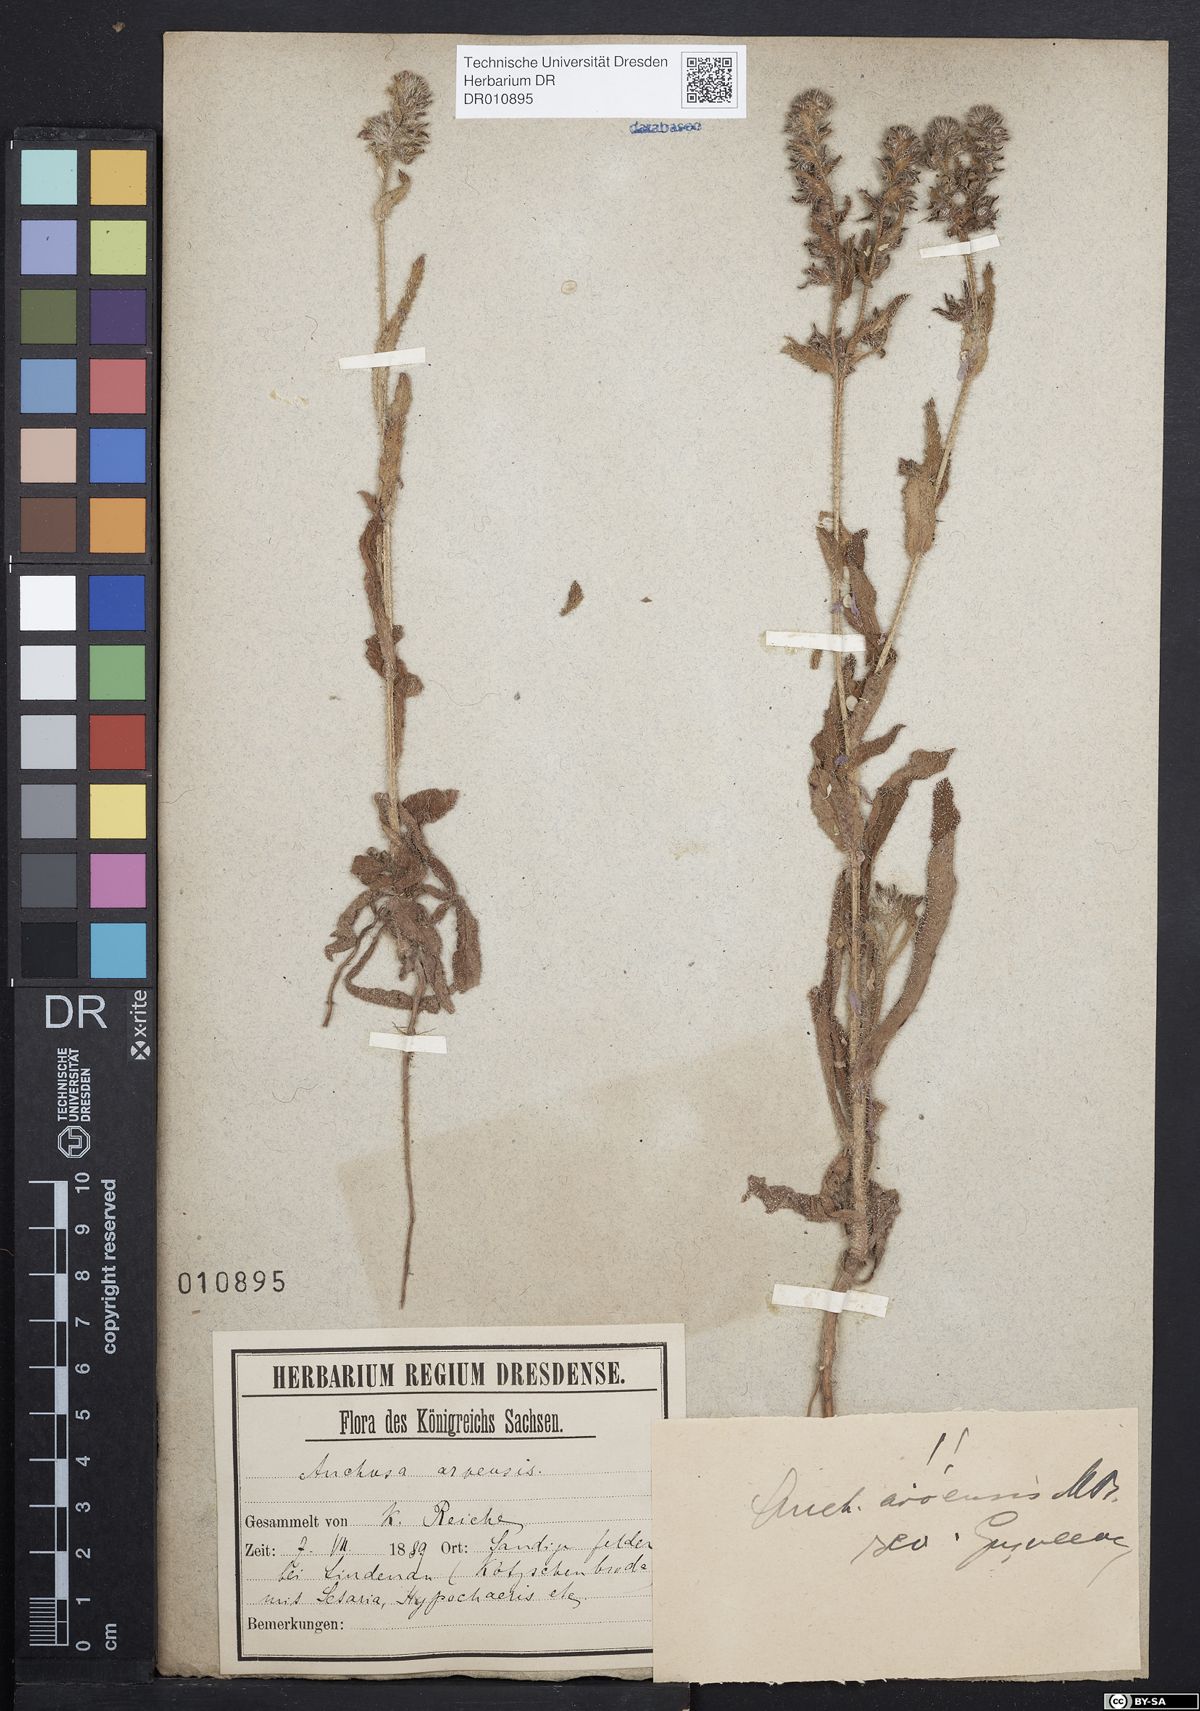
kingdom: Plantae
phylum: Tracheophyta
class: Magnoliopsida
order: Boraginales
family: Boraginaceae
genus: Lycopsis
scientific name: Lycopsis arvensis
